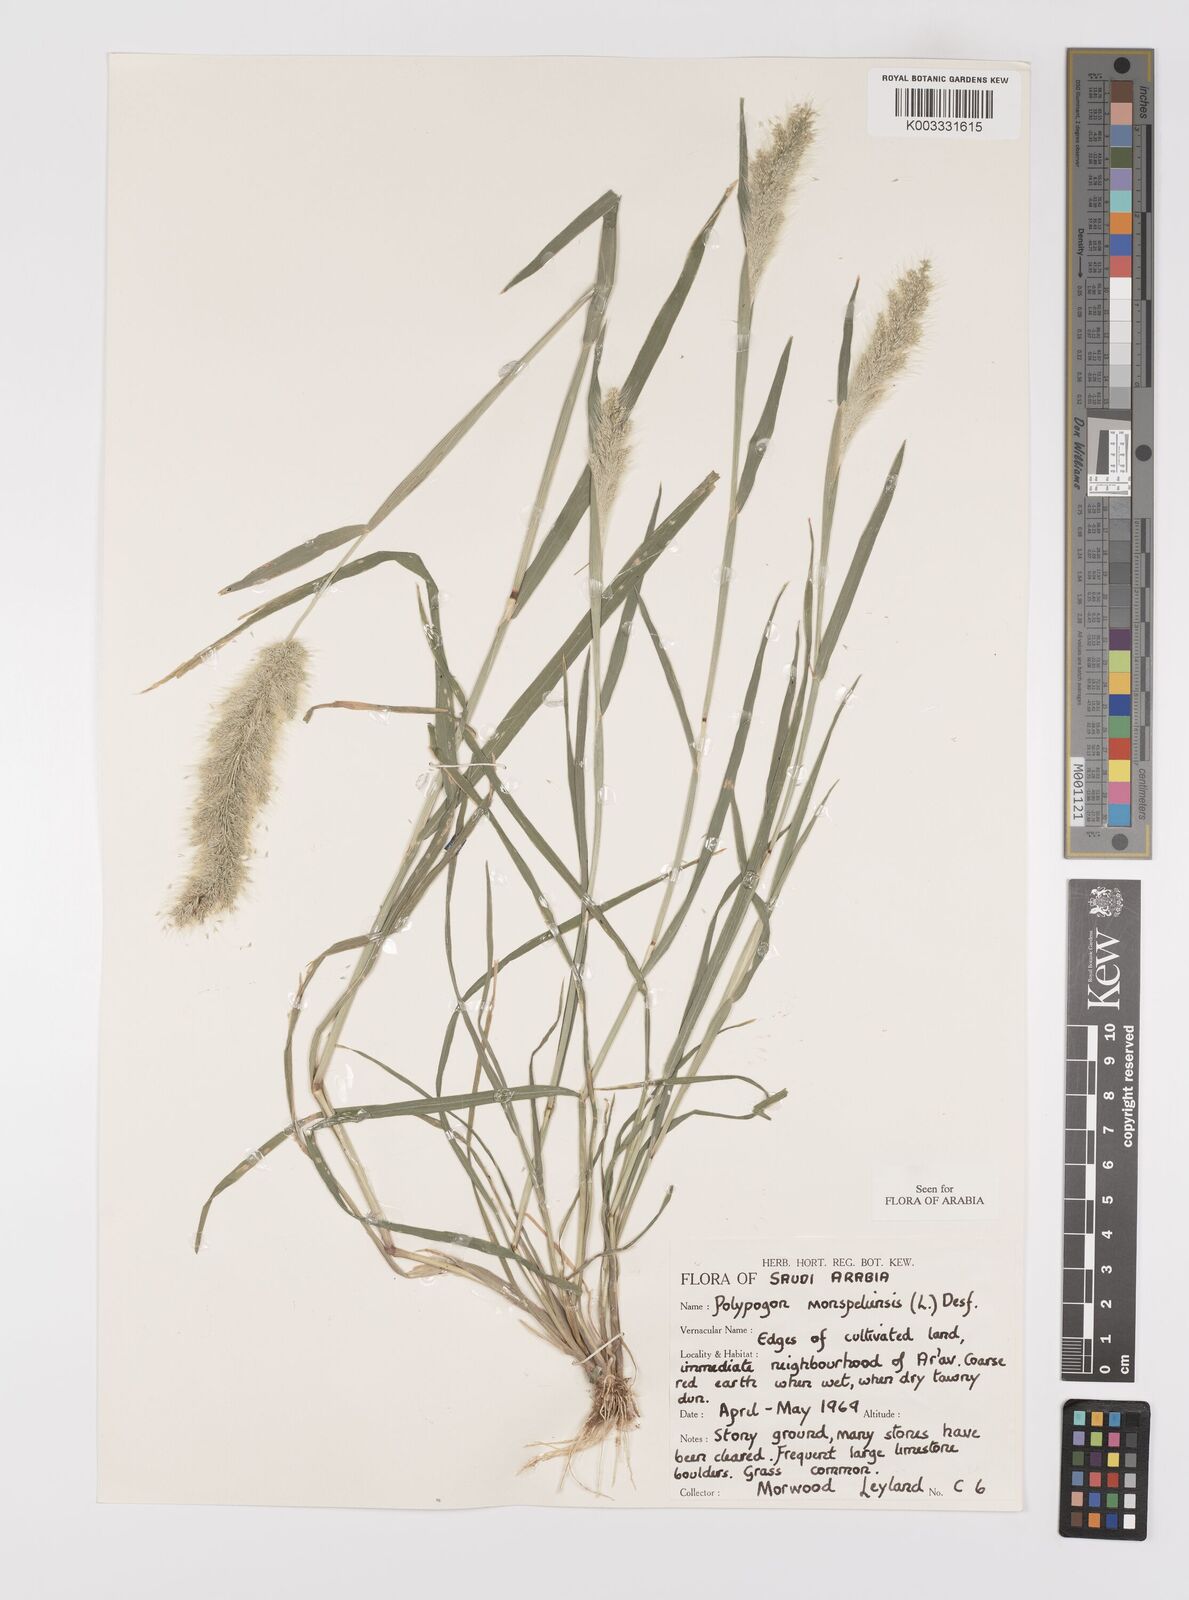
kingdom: Plantae
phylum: Tracheophyta
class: Liliopsida
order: Poales
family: Poaceae
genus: Polypogon
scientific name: Polypogon monspeliensis
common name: Annual rabbitsfoot grass
